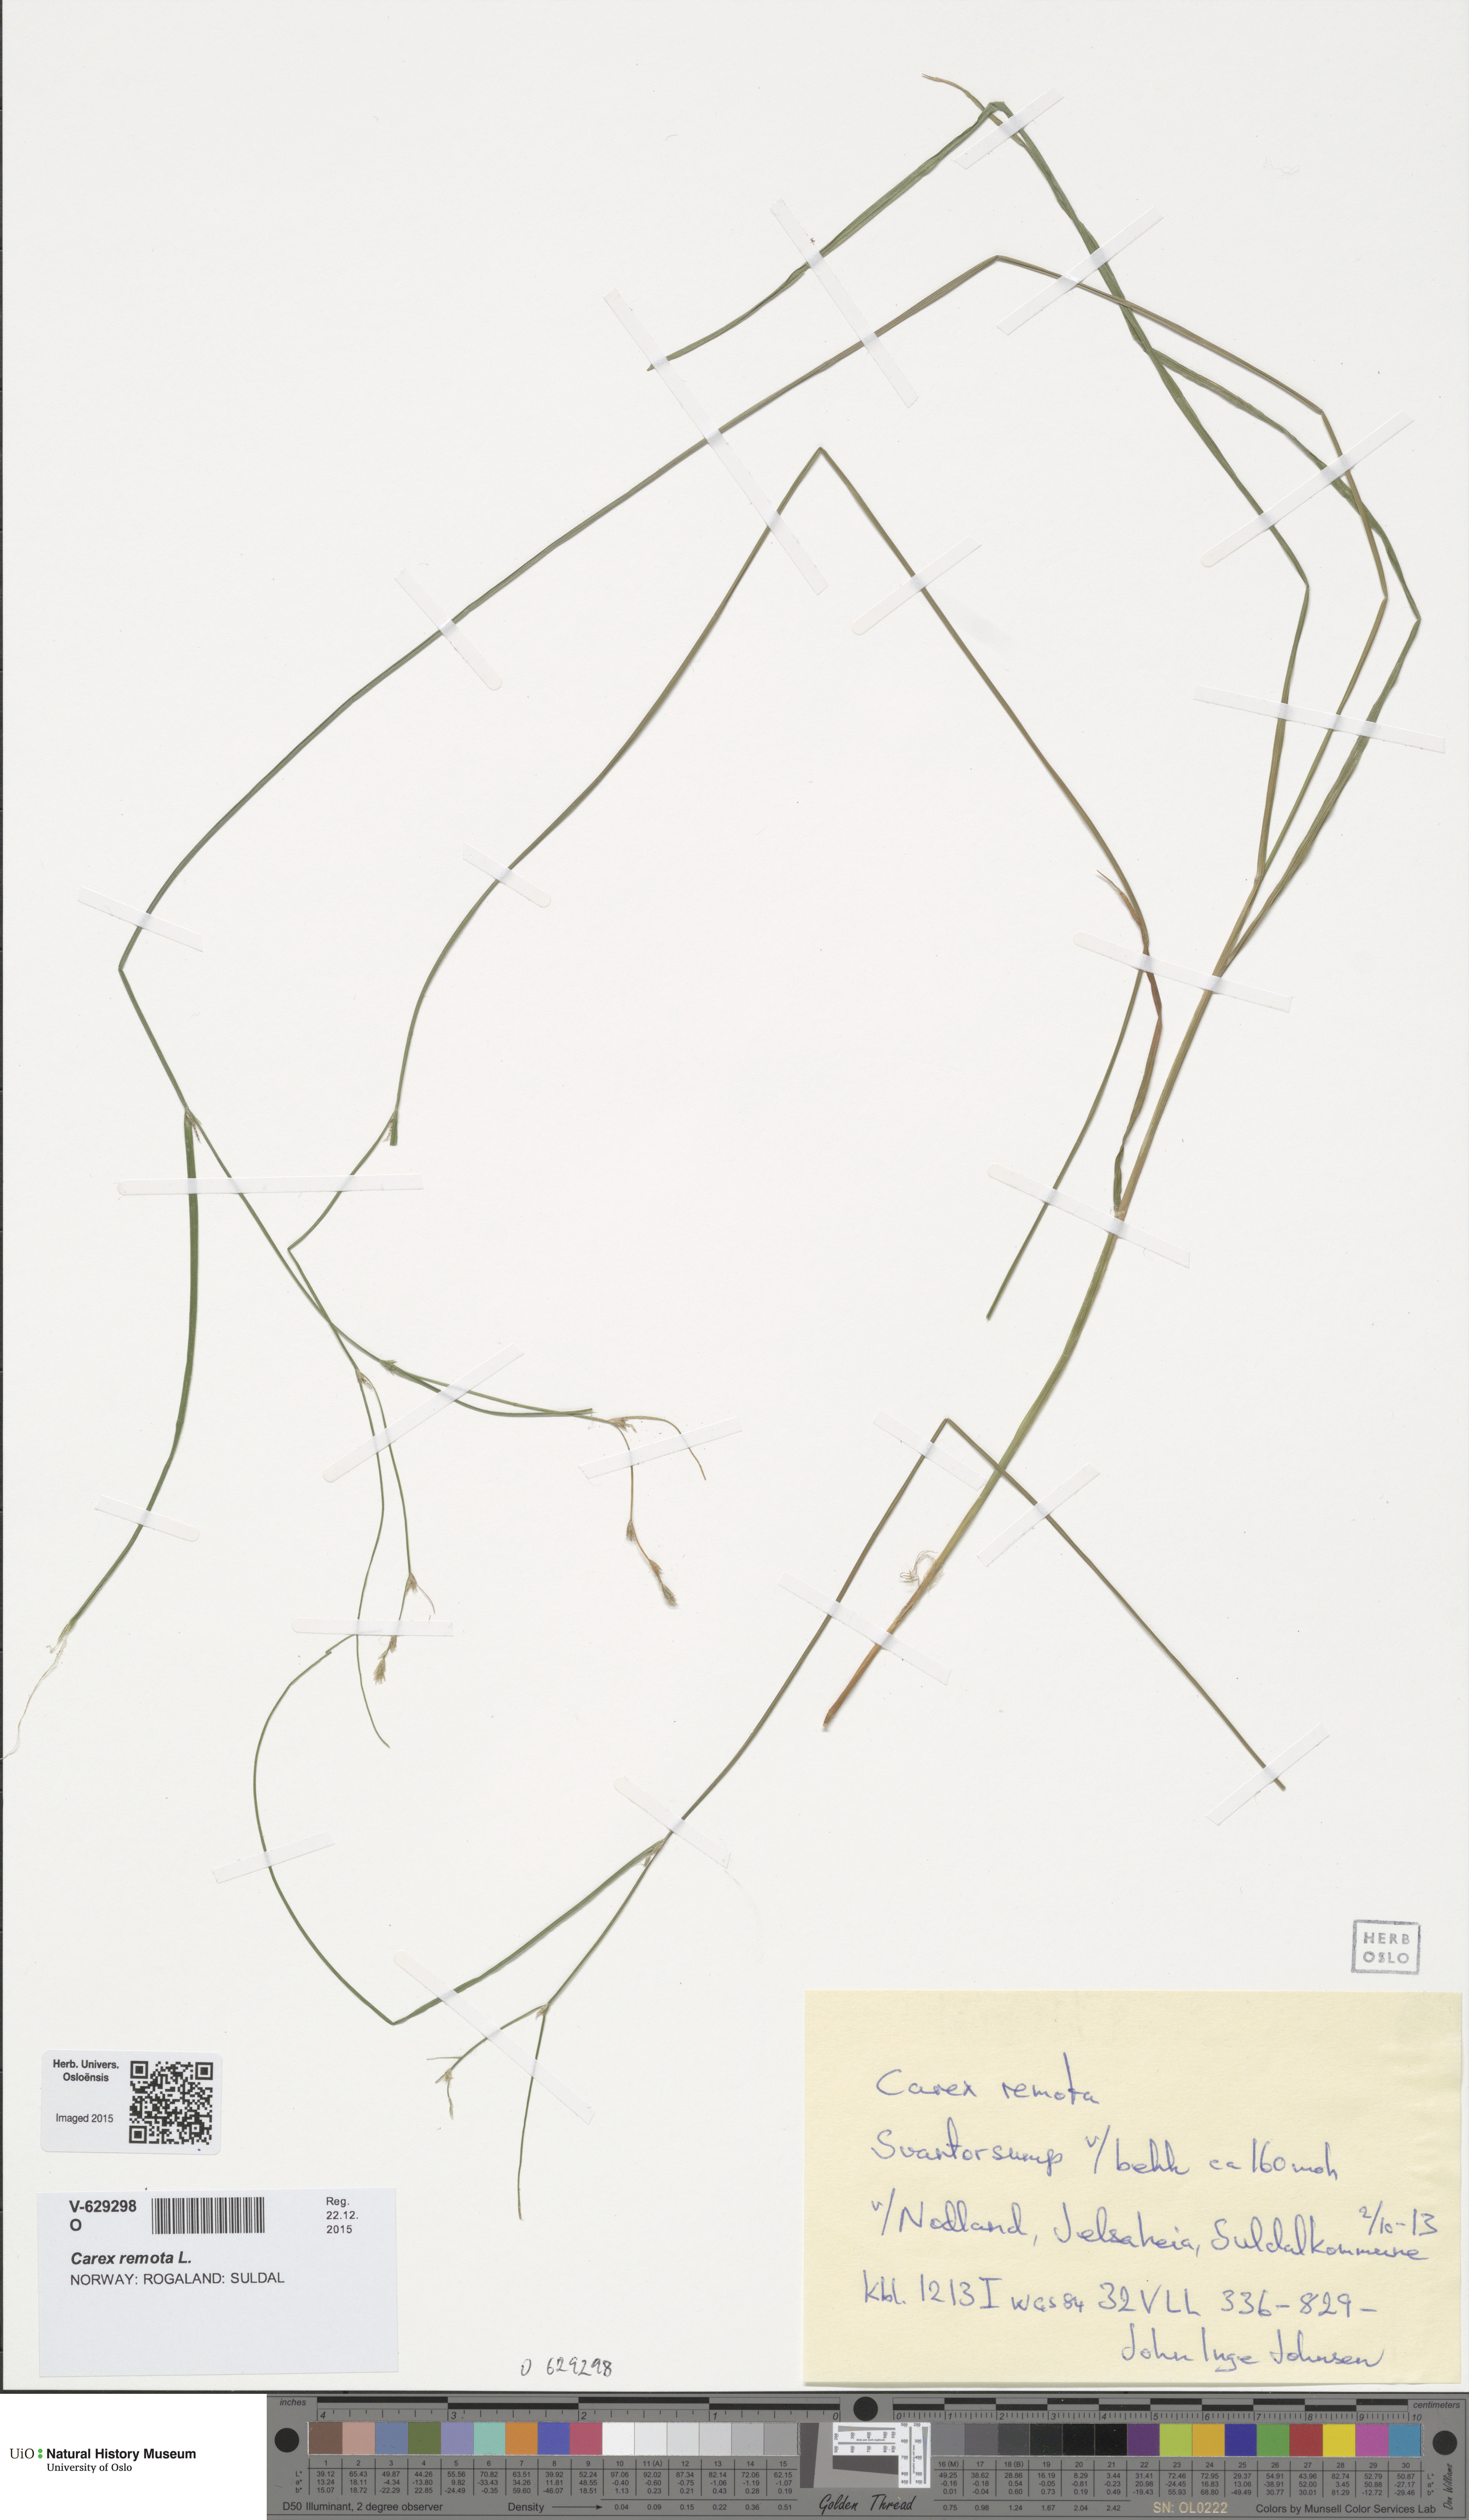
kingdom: Plantae
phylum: Tracheophyta
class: Liliopsida
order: Poales
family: Cyperaceae
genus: Carex
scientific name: Carex remota
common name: Remote sedge
